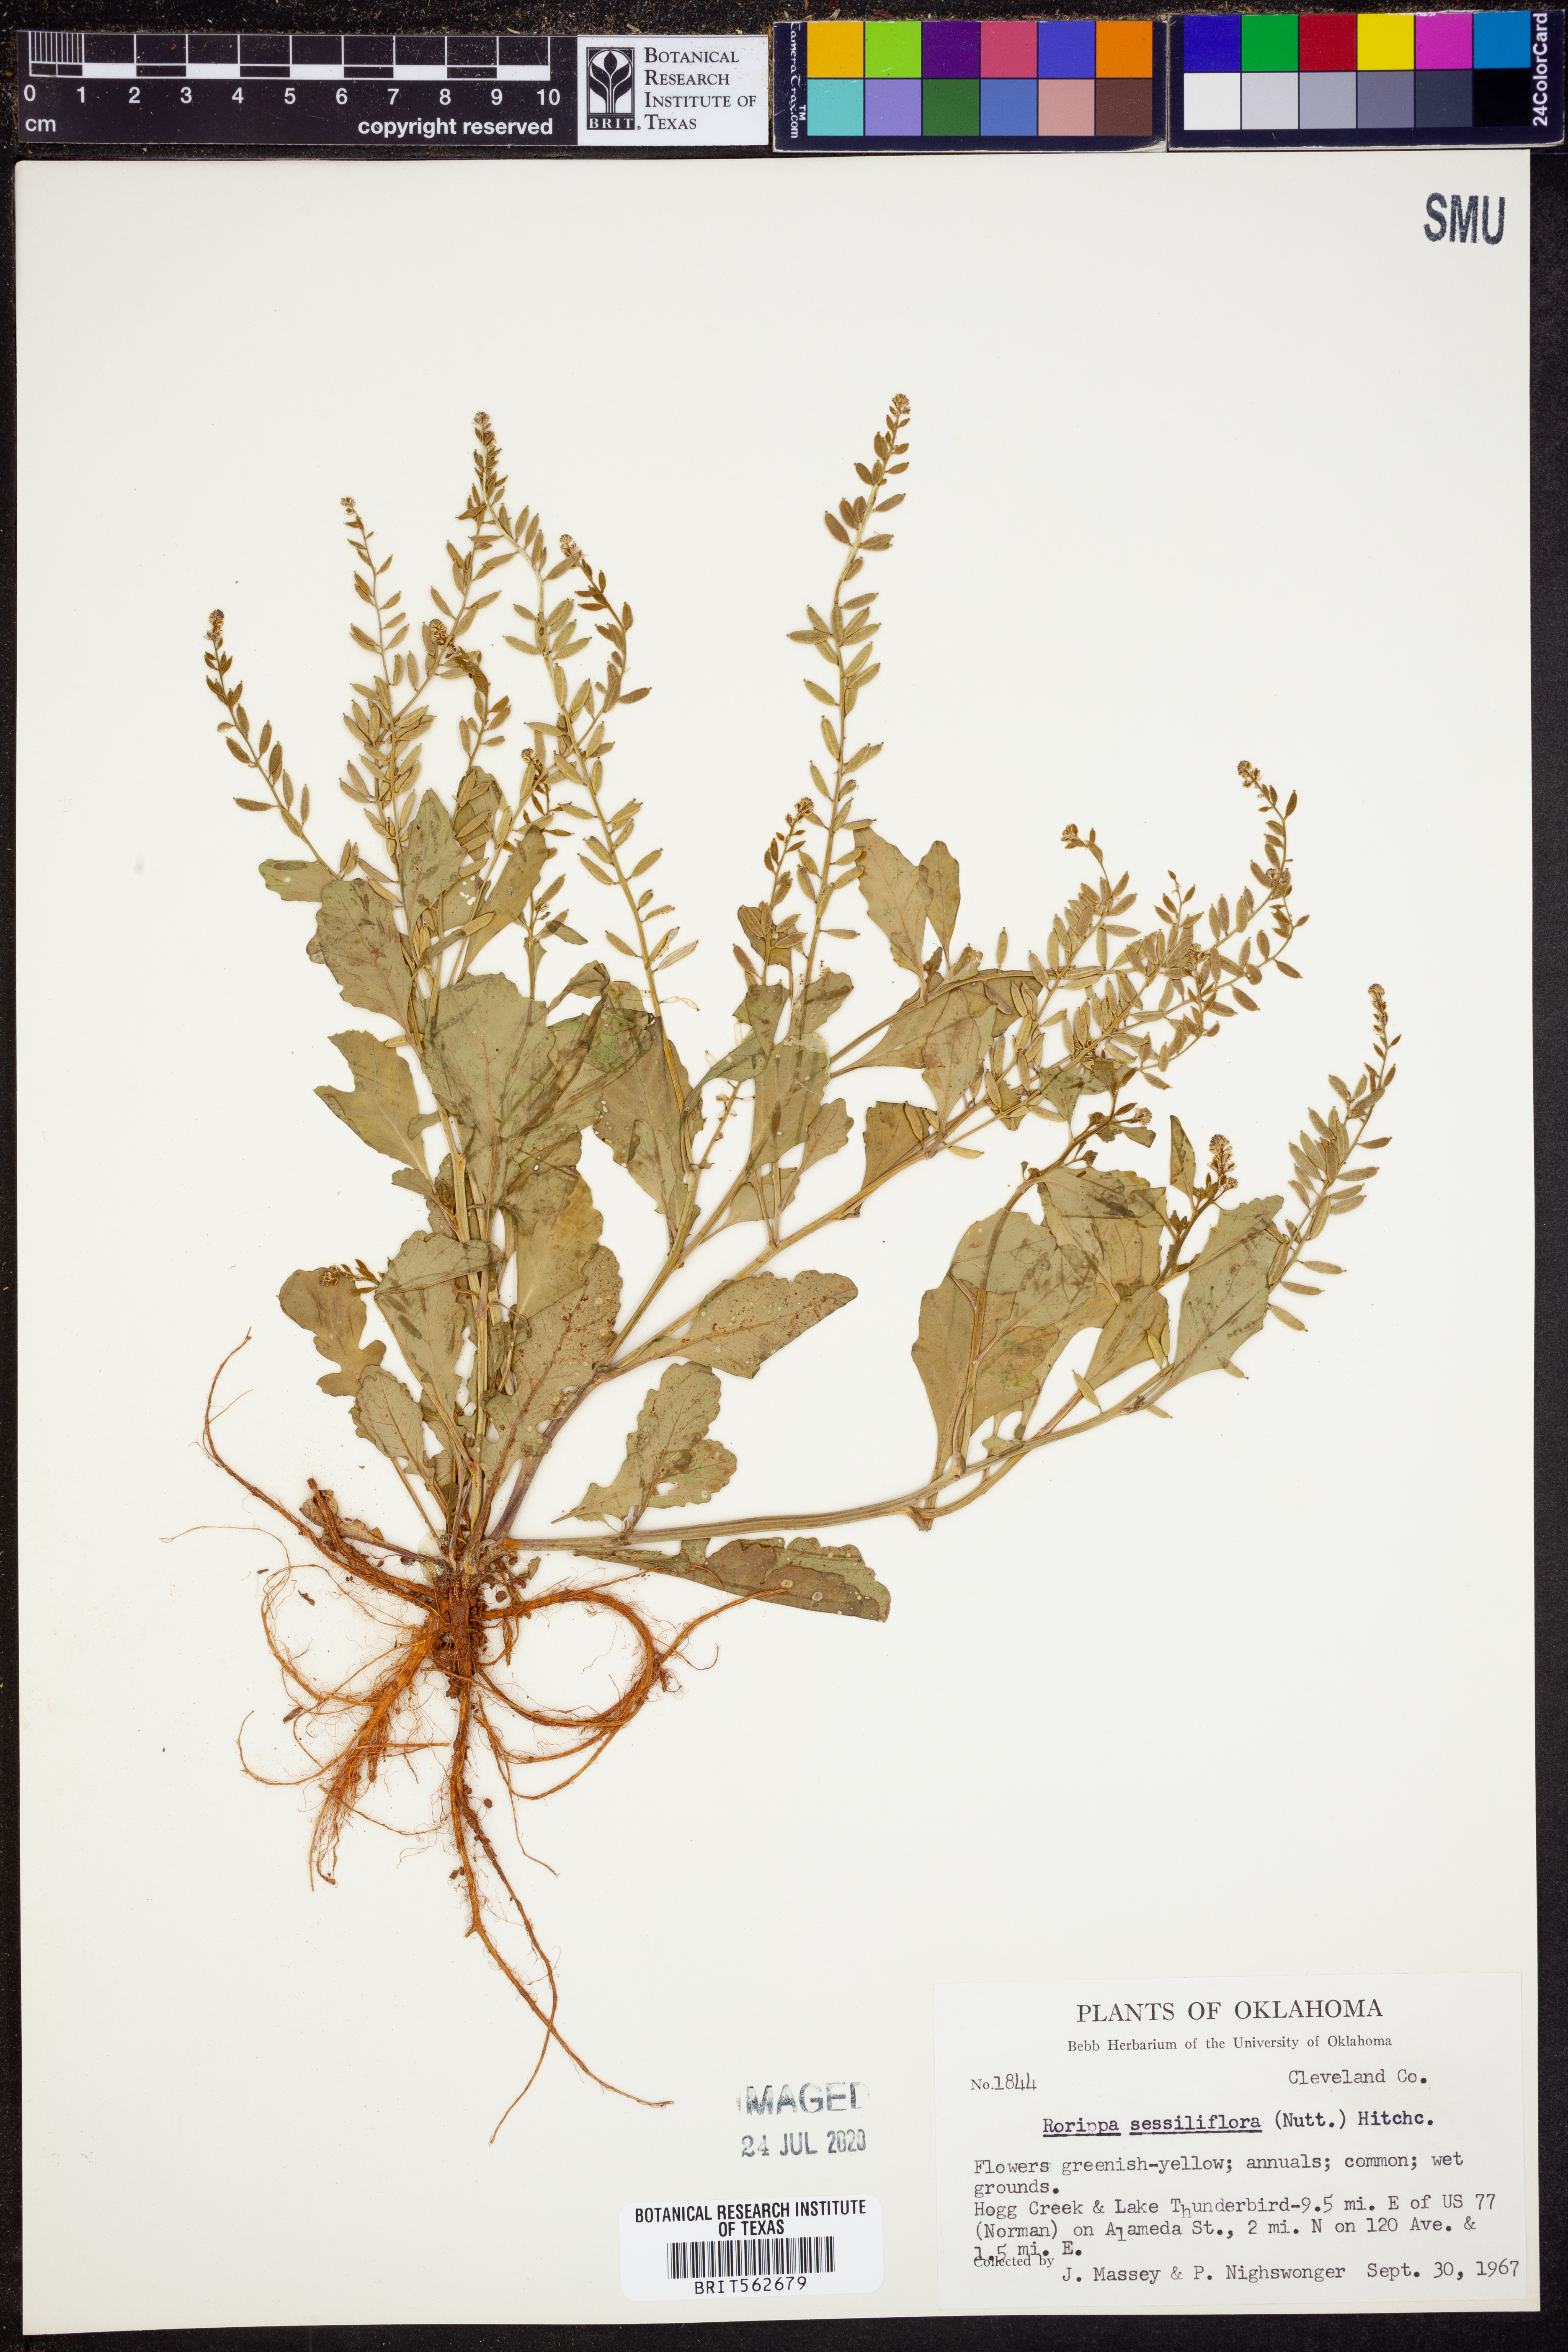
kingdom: Plantae
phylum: Tracheophyta
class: Magnoliopsida
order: Brassicales
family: Brassicaceae
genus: Rorippa
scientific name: Rorippa sessiliflora
